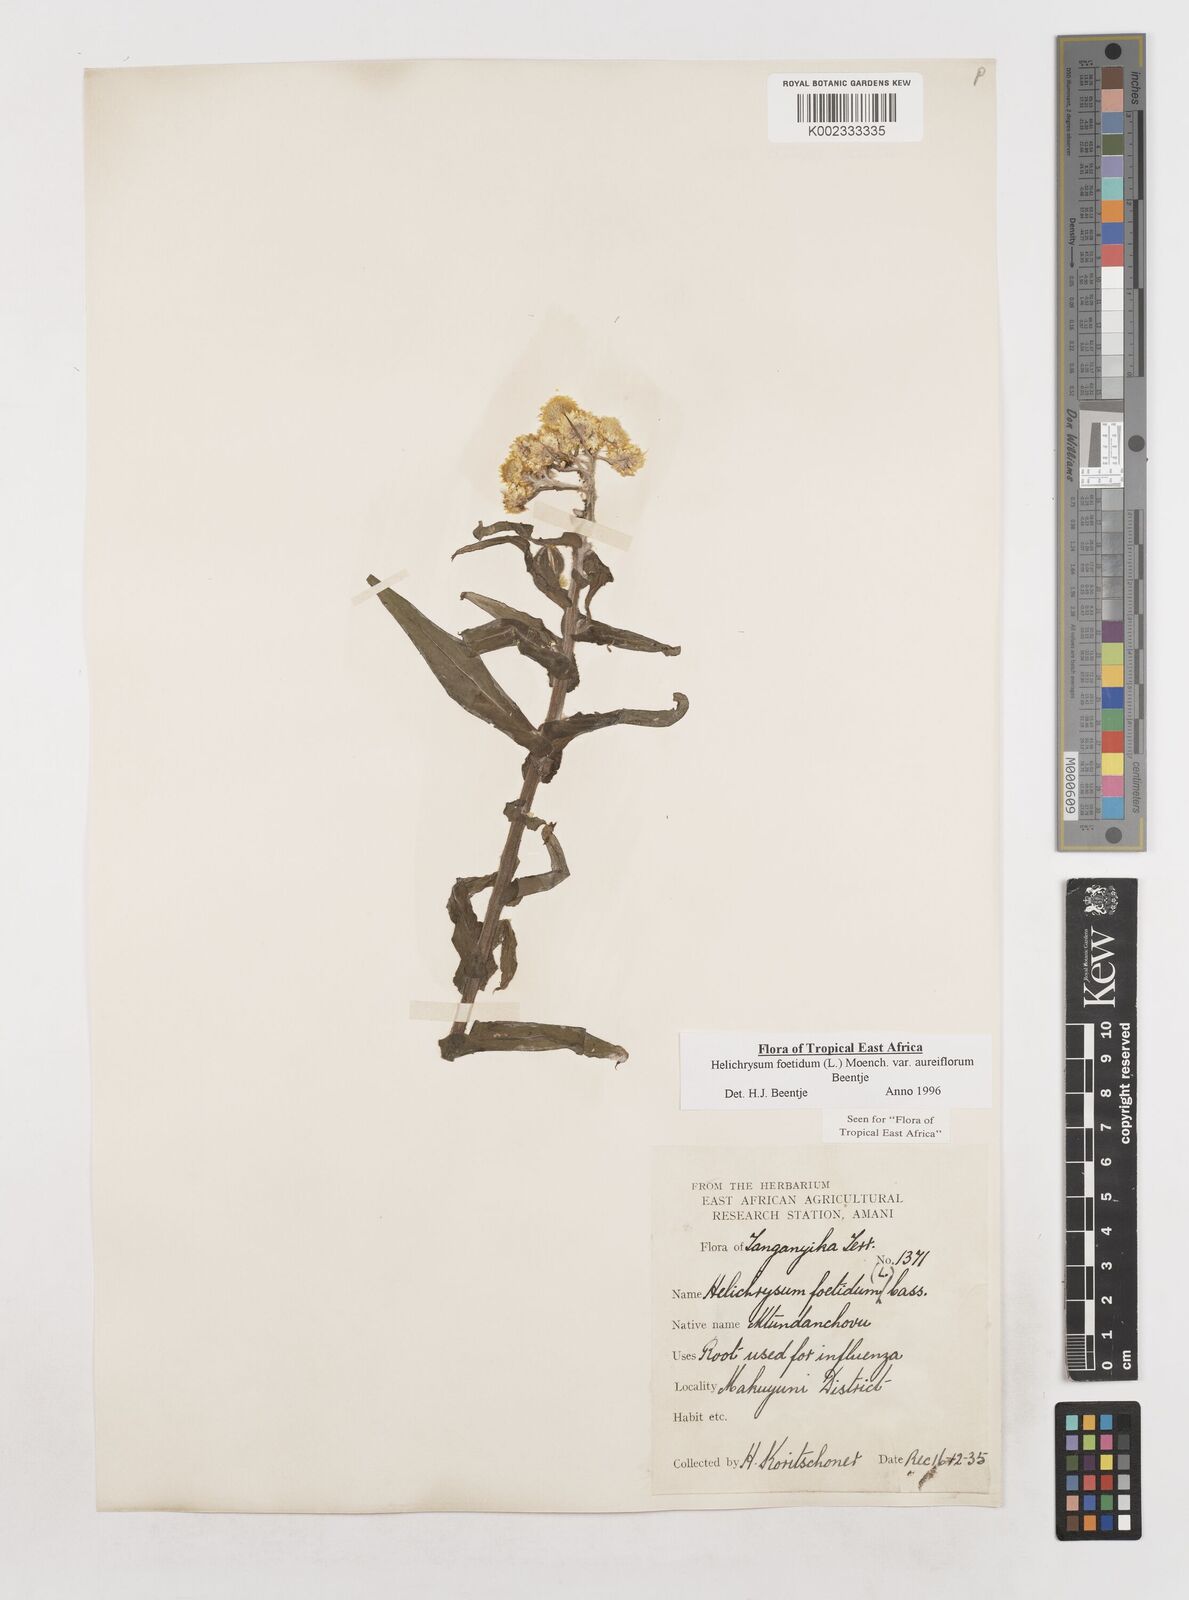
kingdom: Plantae
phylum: Tracheophyta
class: Magnoliopsida
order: Asterales
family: Asteraceae
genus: Helichrysum
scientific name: Helichrysum foetidum
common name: Stinking everlasting
